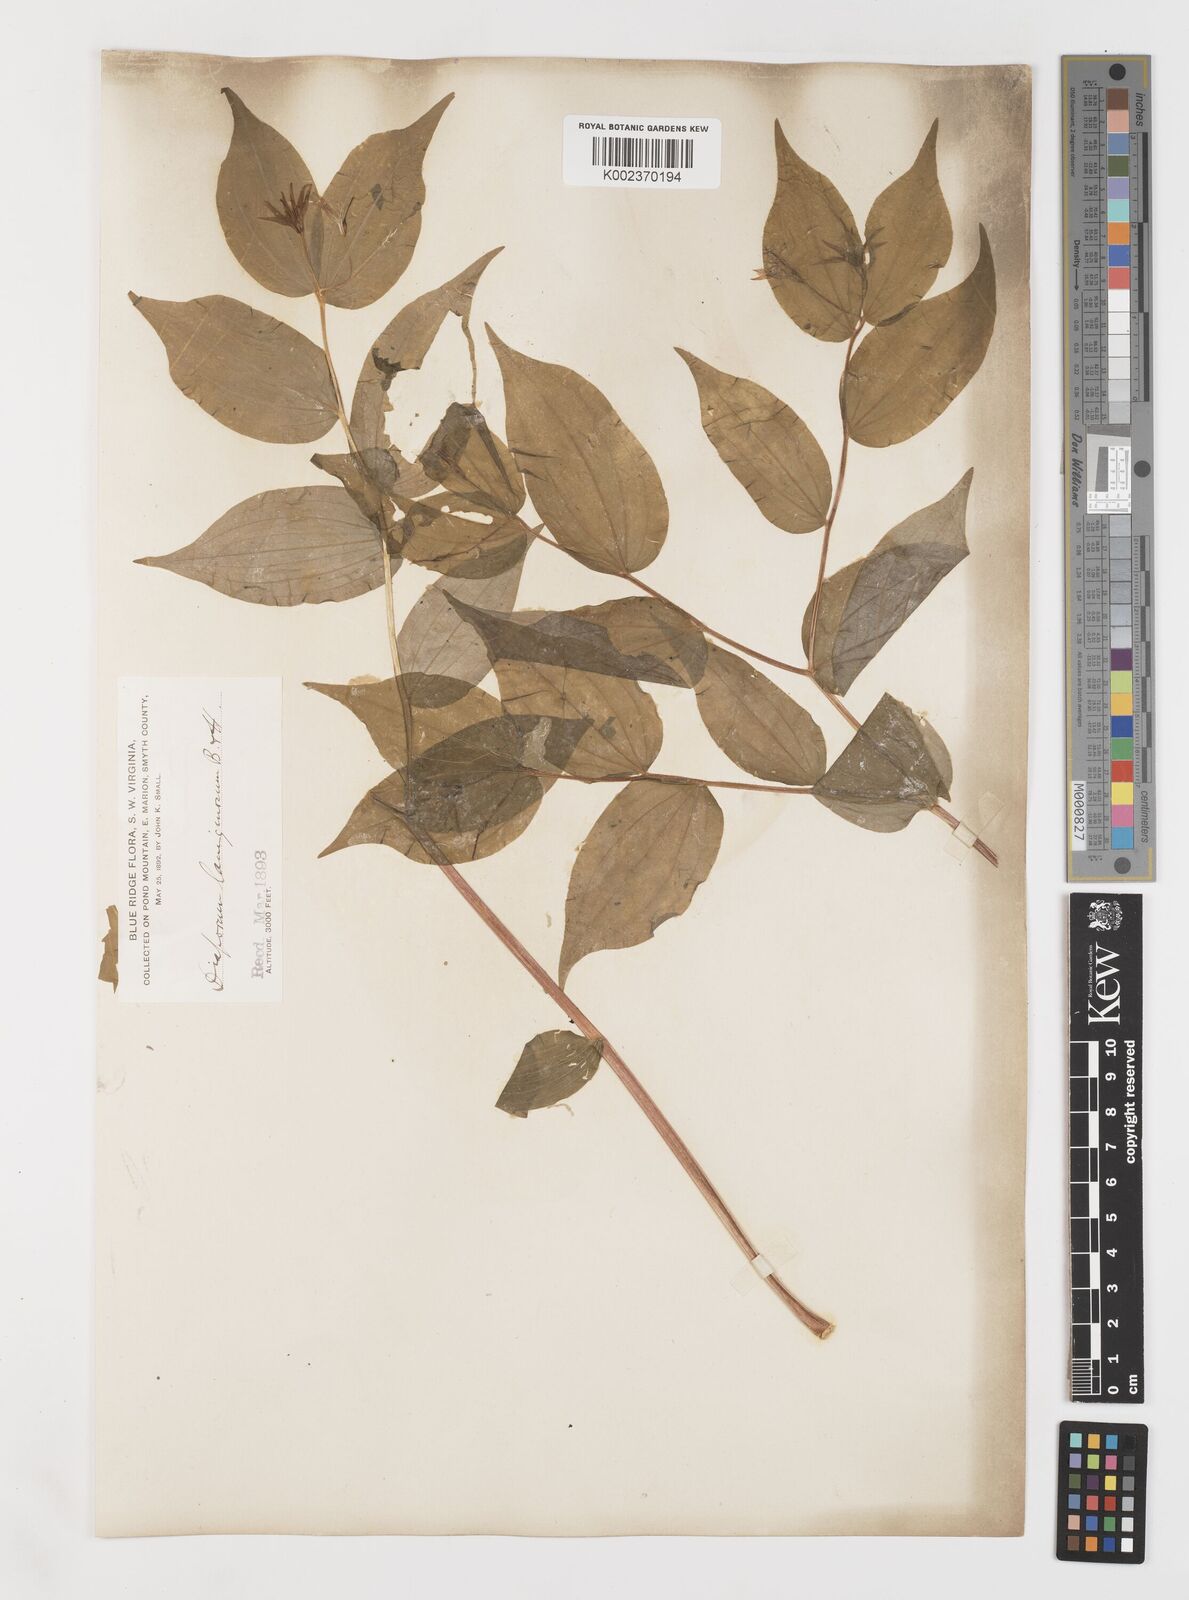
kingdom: Plantae
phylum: Tracheophyta
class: Liliopsida
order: Liliales
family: Liliaceae
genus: Prosartes
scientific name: Prosartes trachycarpa
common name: Rough-fruit fairy-bells
